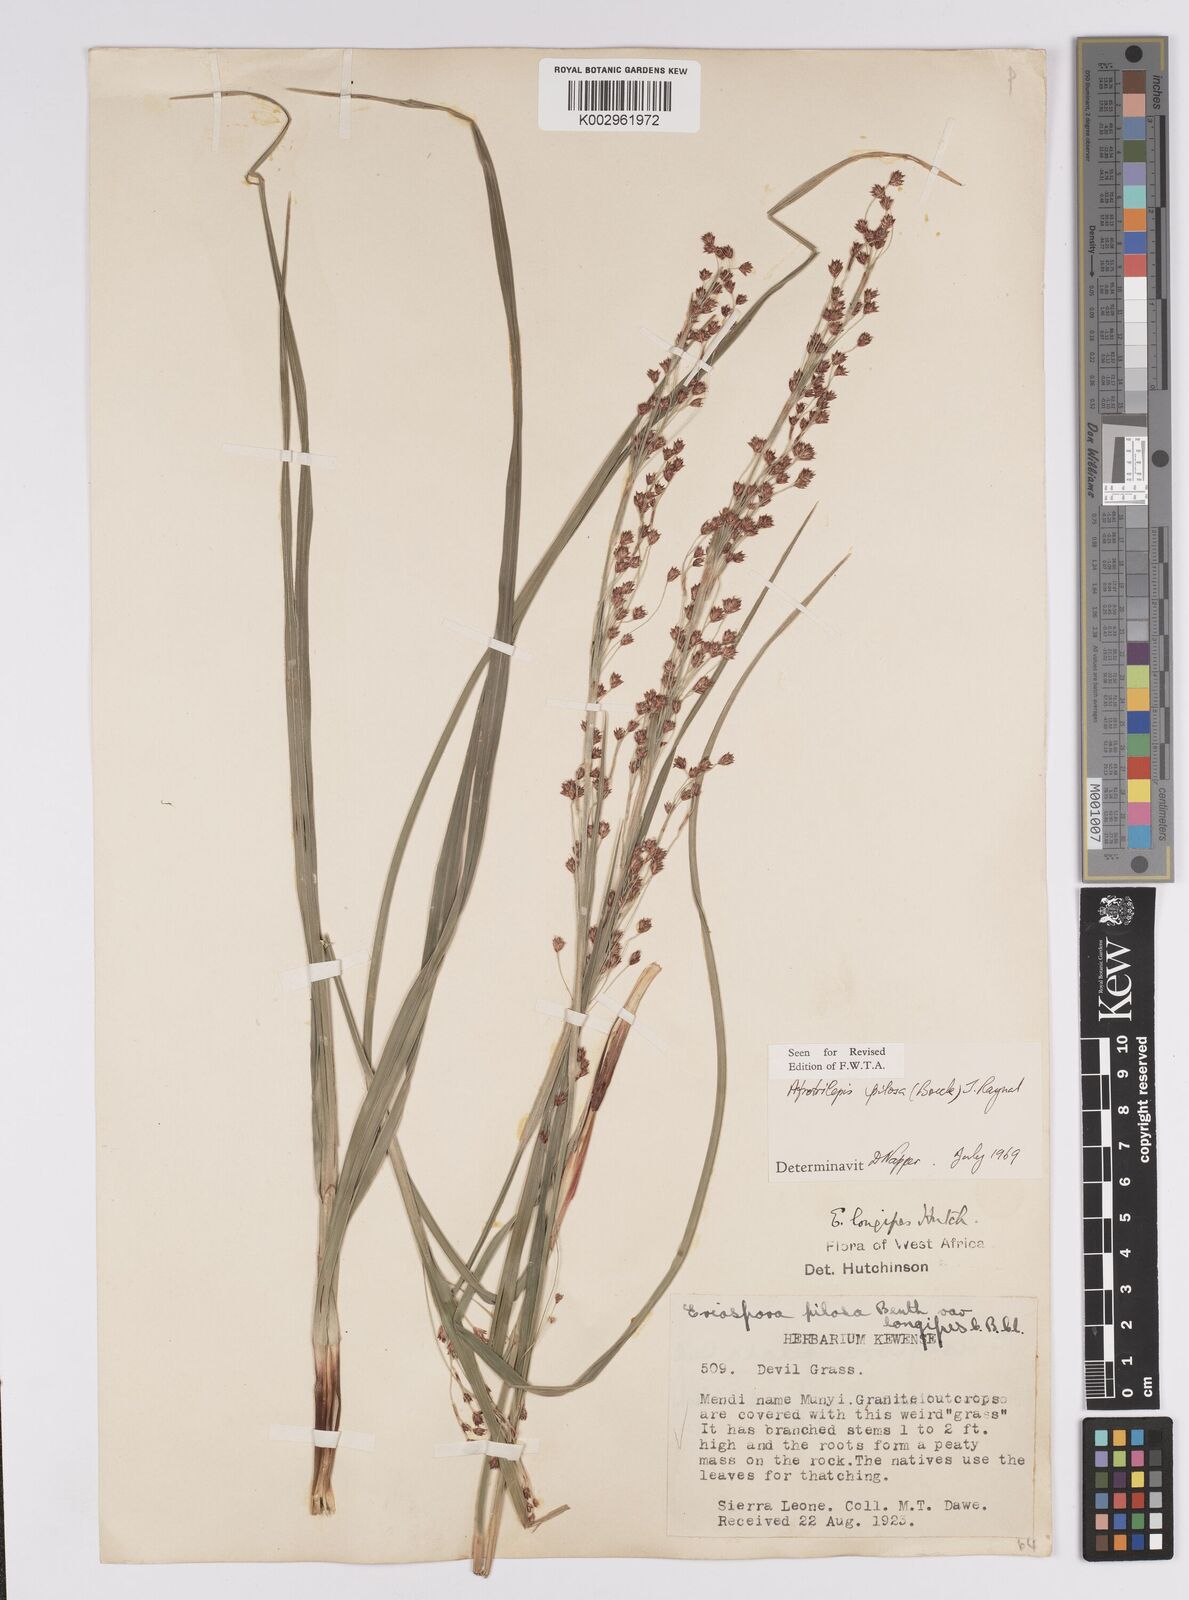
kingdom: Plantae
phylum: Tracheophyta
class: Liliopsida
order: Poales
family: Cyperaceae
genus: Afrotrilepis
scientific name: Afrotrilepis pilosa
